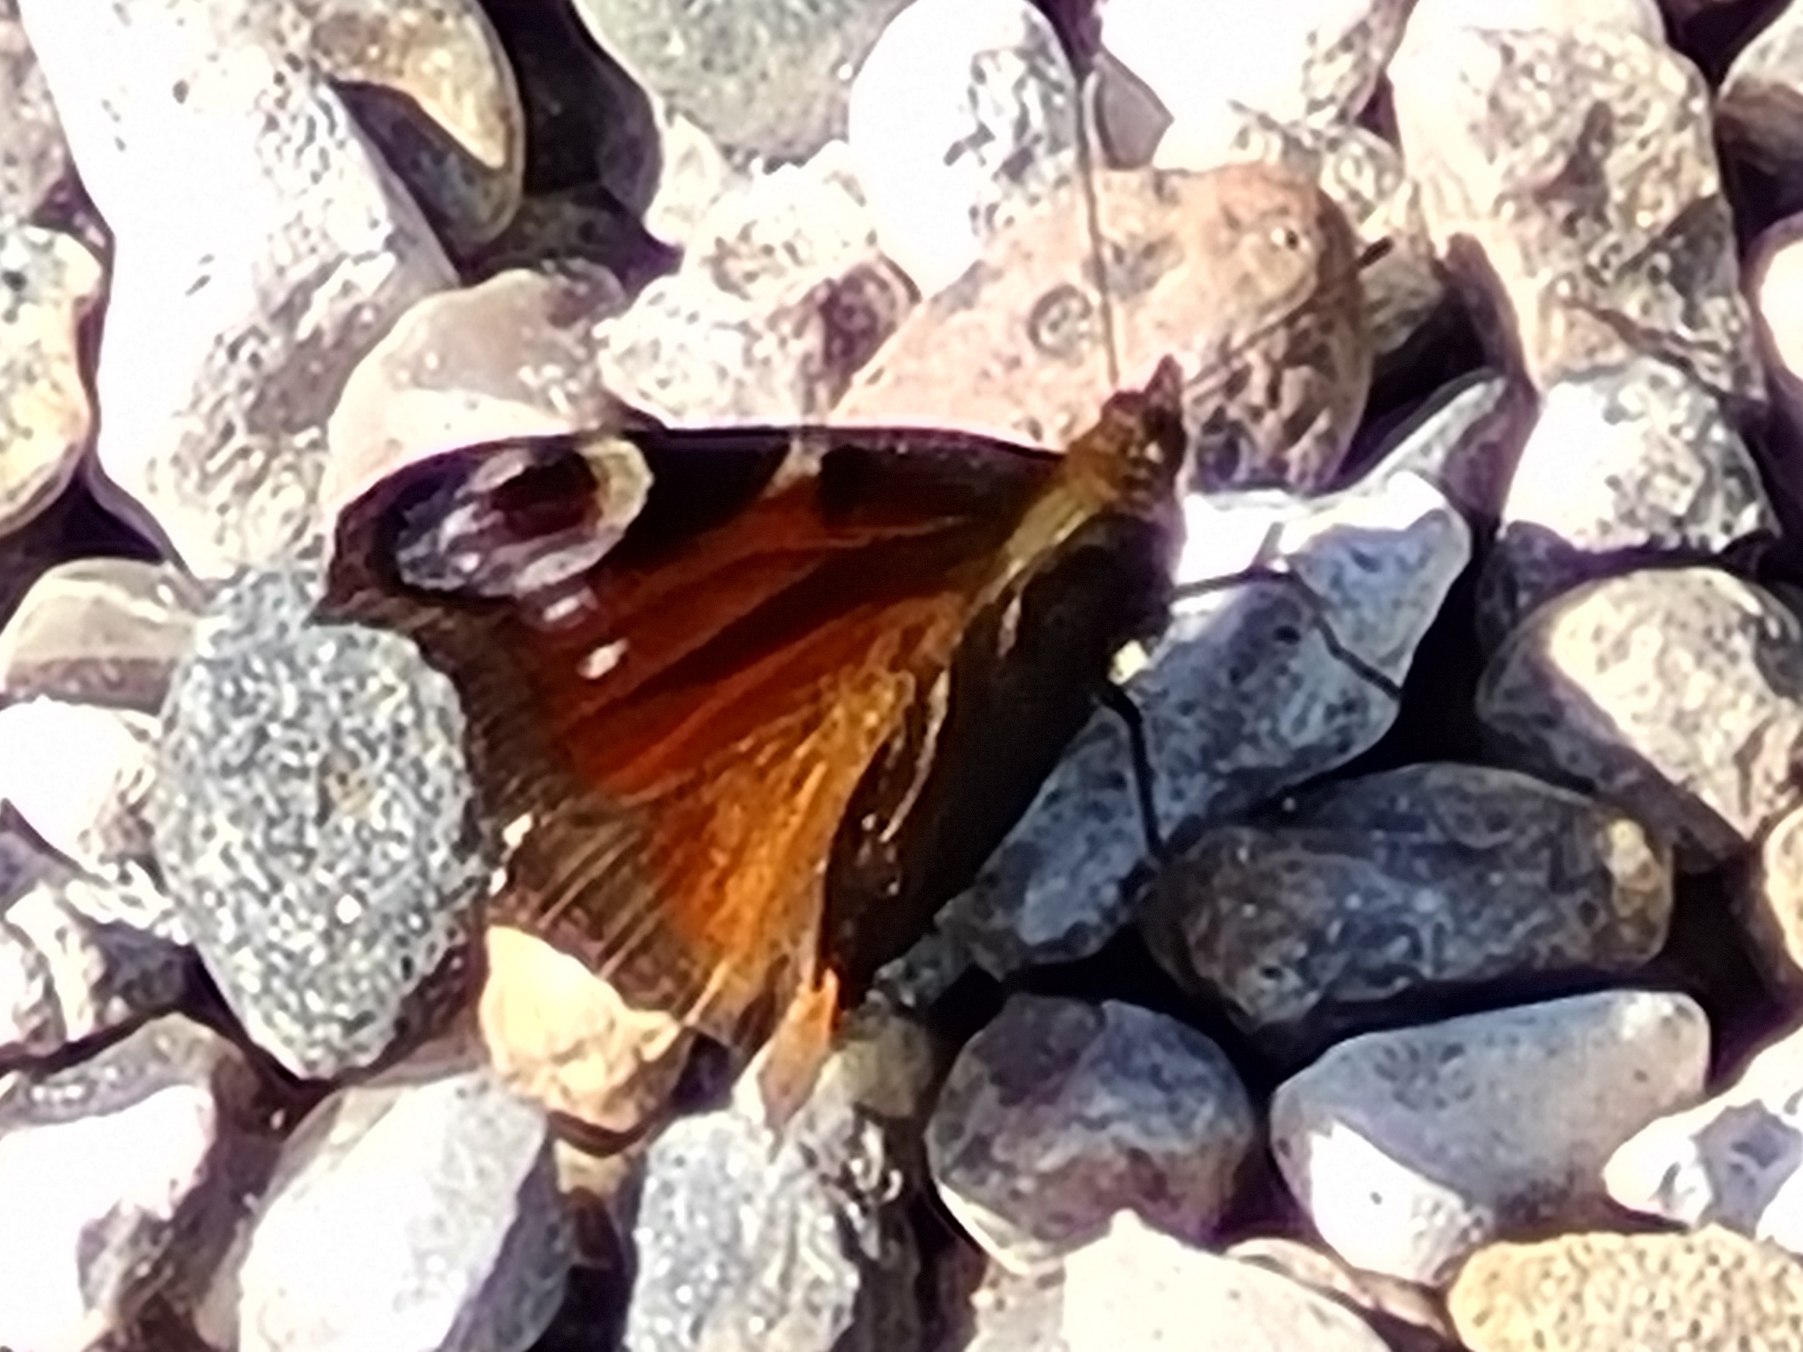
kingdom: Animalia
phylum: Arthropoda
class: Insecta
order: Lepidoptera
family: Nymphalidae
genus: Aglais
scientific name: Aglais io
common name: Dagpåfugleøje
